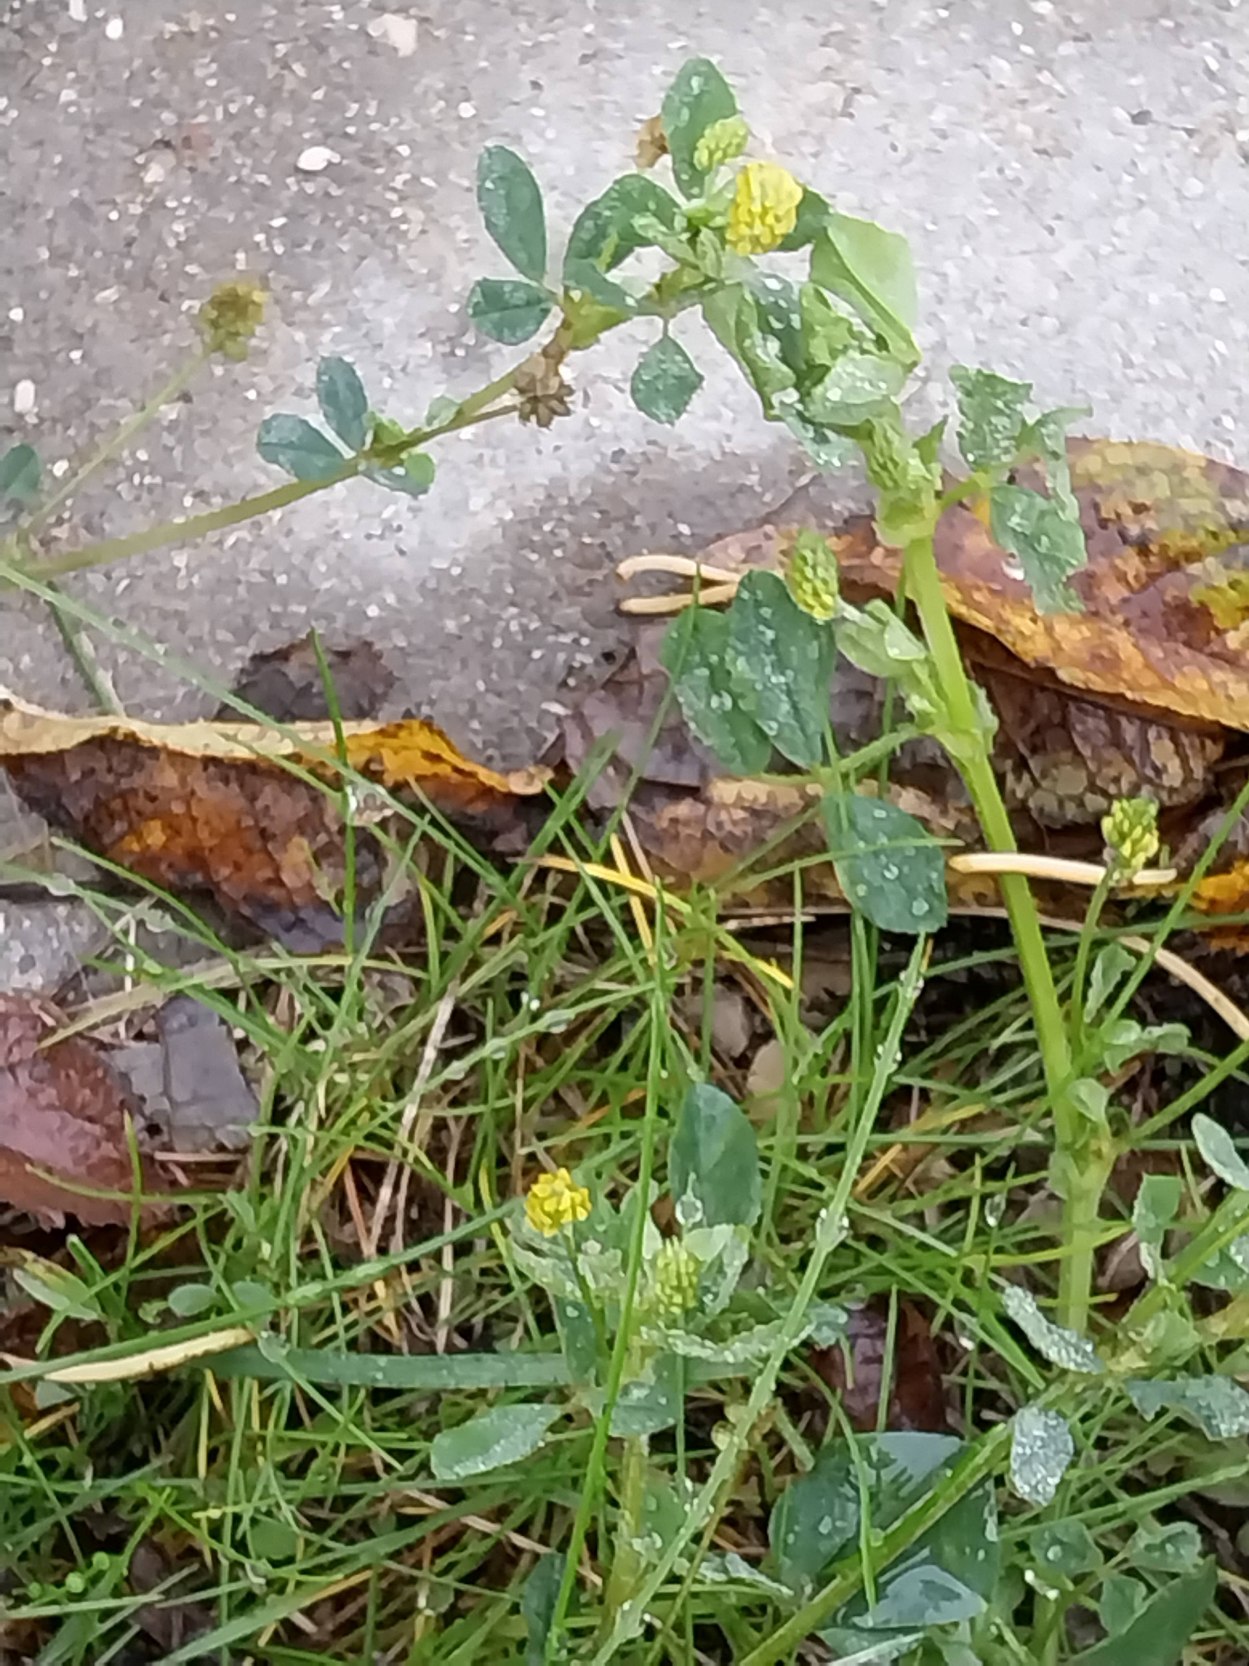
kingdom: Plantae
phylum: Tracheophyta
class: Magnoliopsida
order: Fabales
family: Fabaceae
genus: Medicago
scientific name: Medicago lupulina
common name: Humle-sneglebælg
